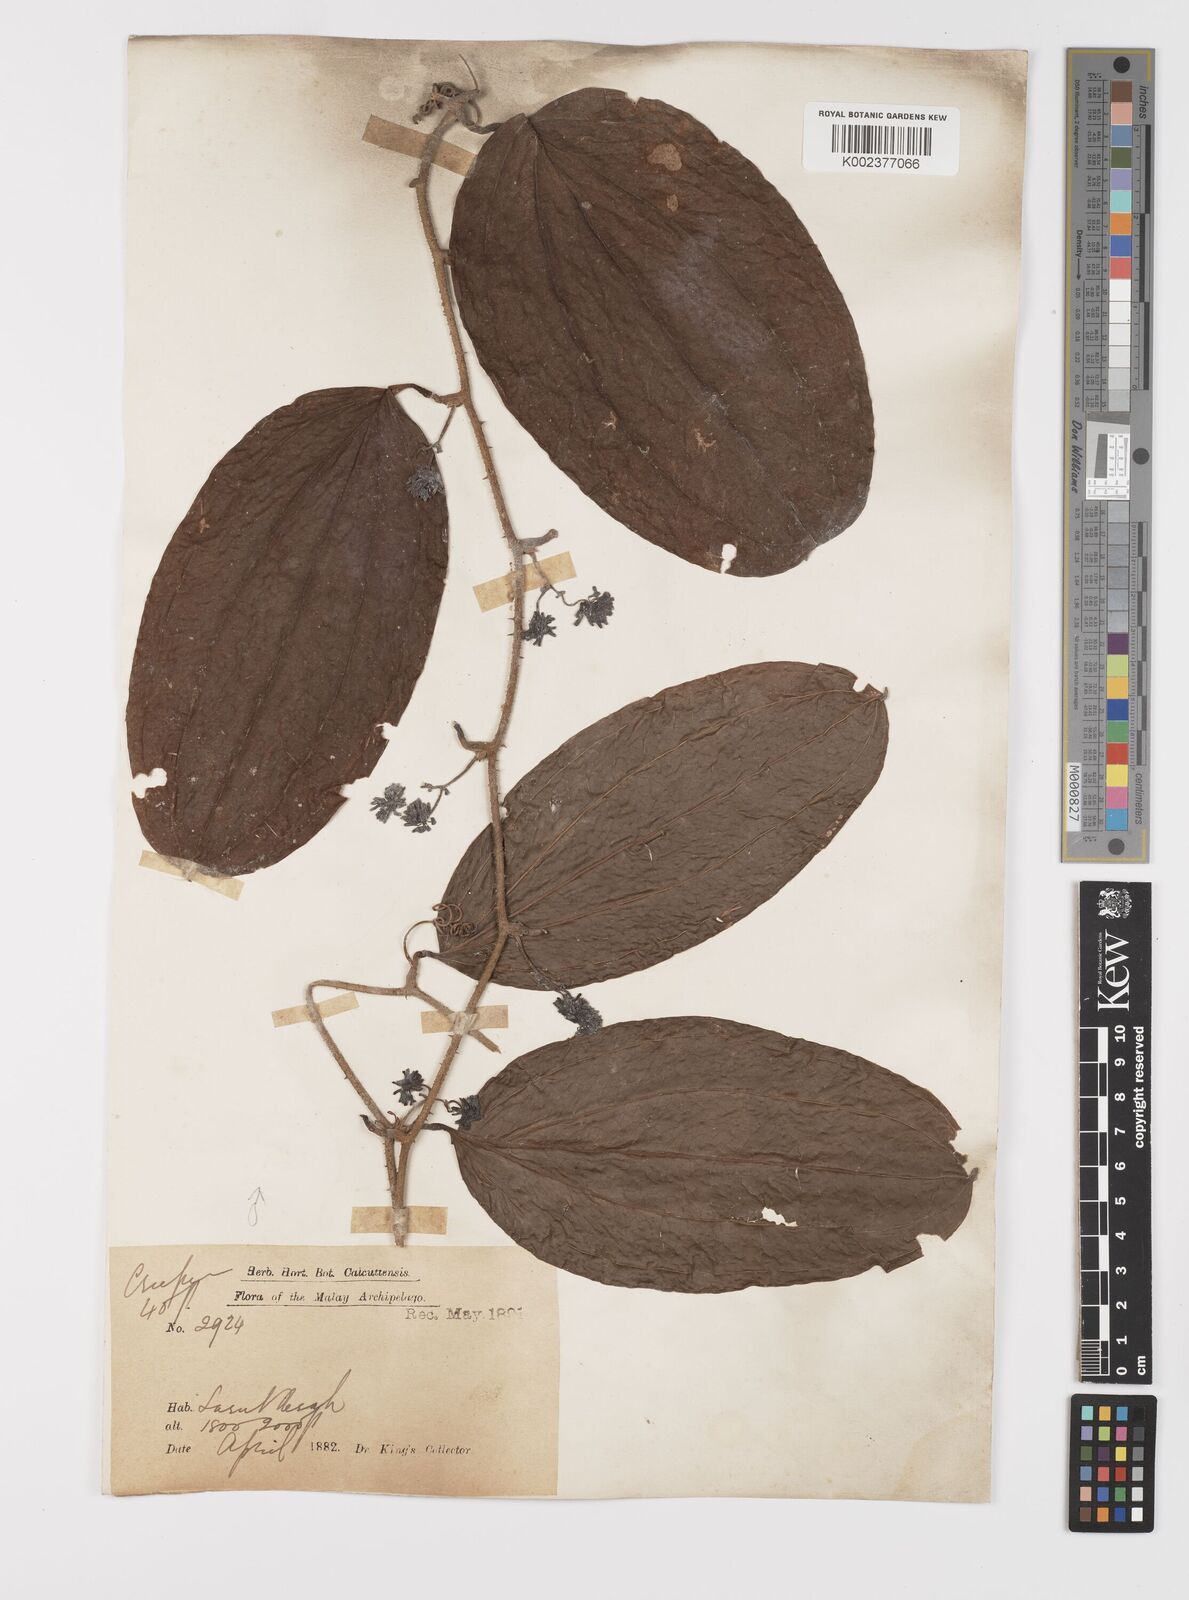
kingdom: Plantae
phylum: Tracheophyta
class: Liliopsida
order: Liliales
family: Smilacaceae
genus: Smilax
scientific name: Smilax aspericaulis
